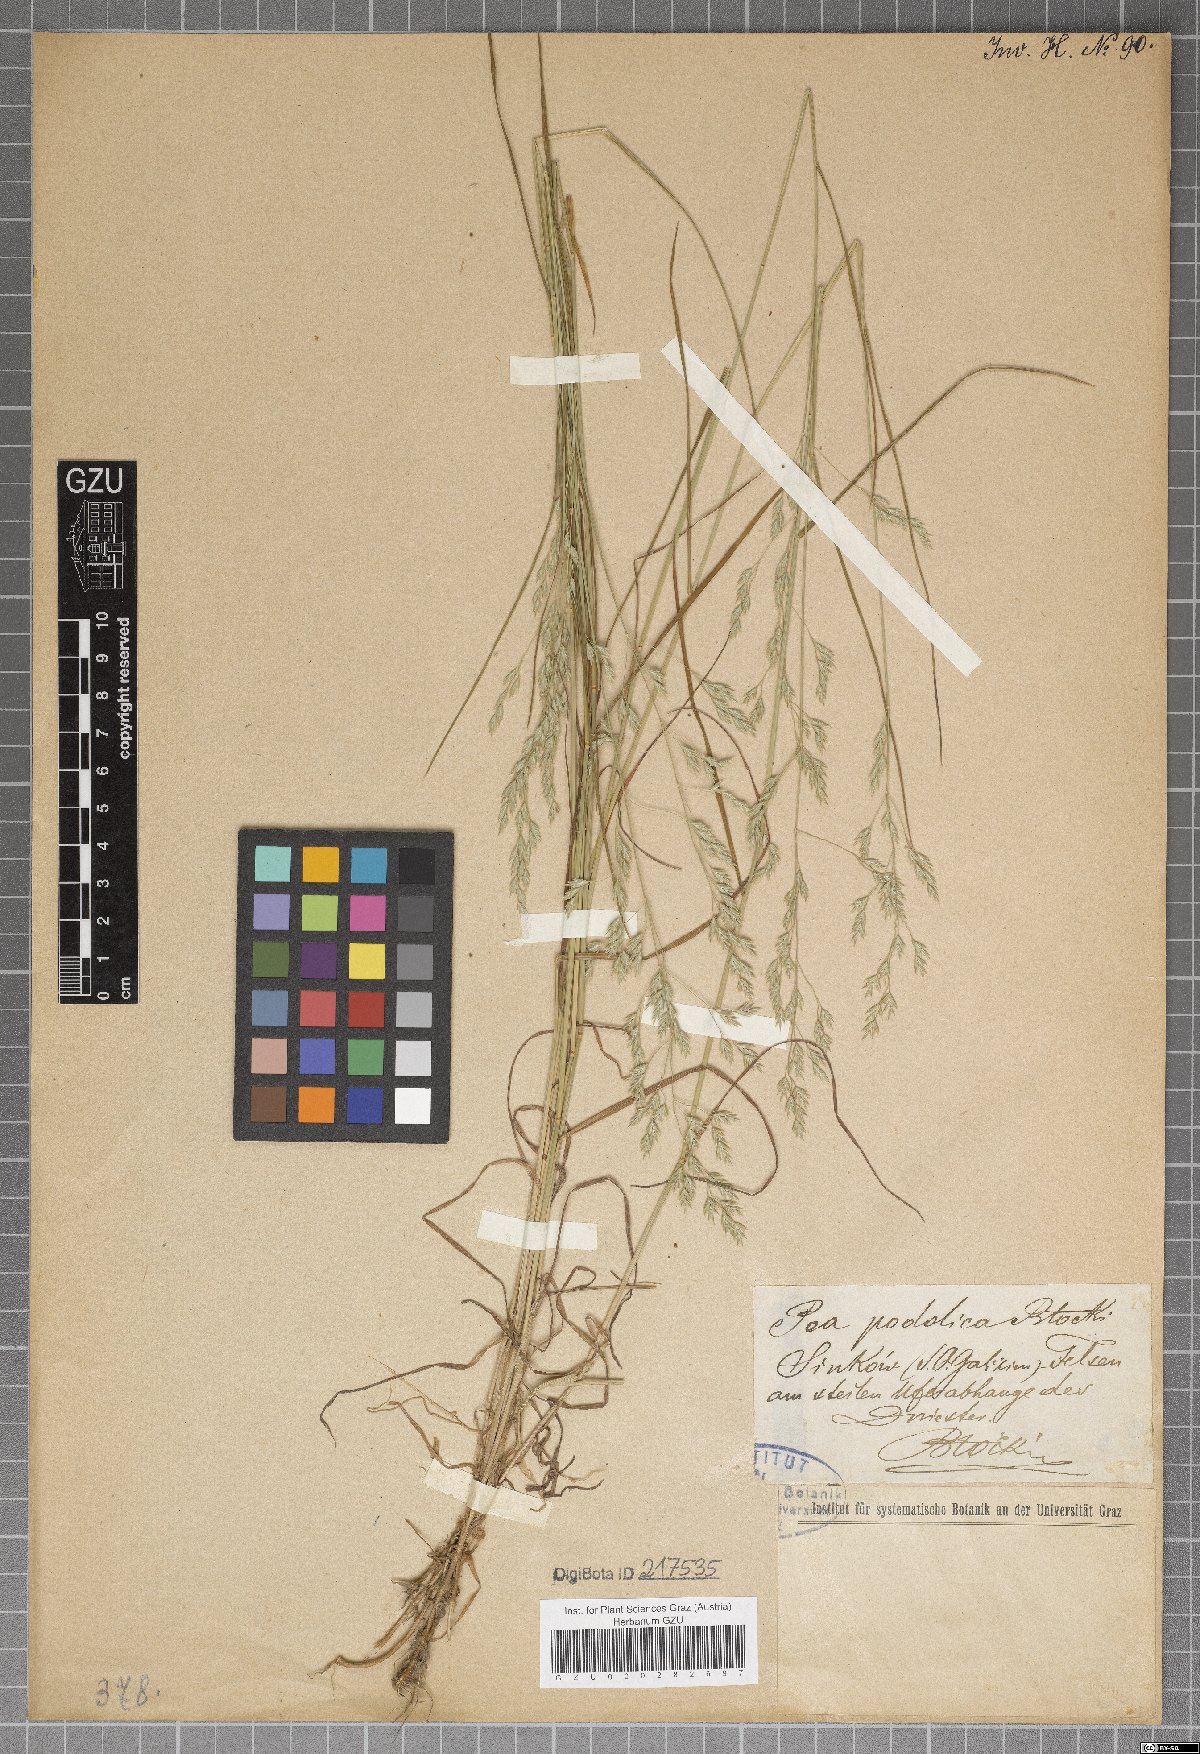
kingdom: Plantae
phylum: Tracheophyta
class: Liliopsida
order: Poales
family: Poaceae
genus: Poa
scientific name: Poa versicolor
